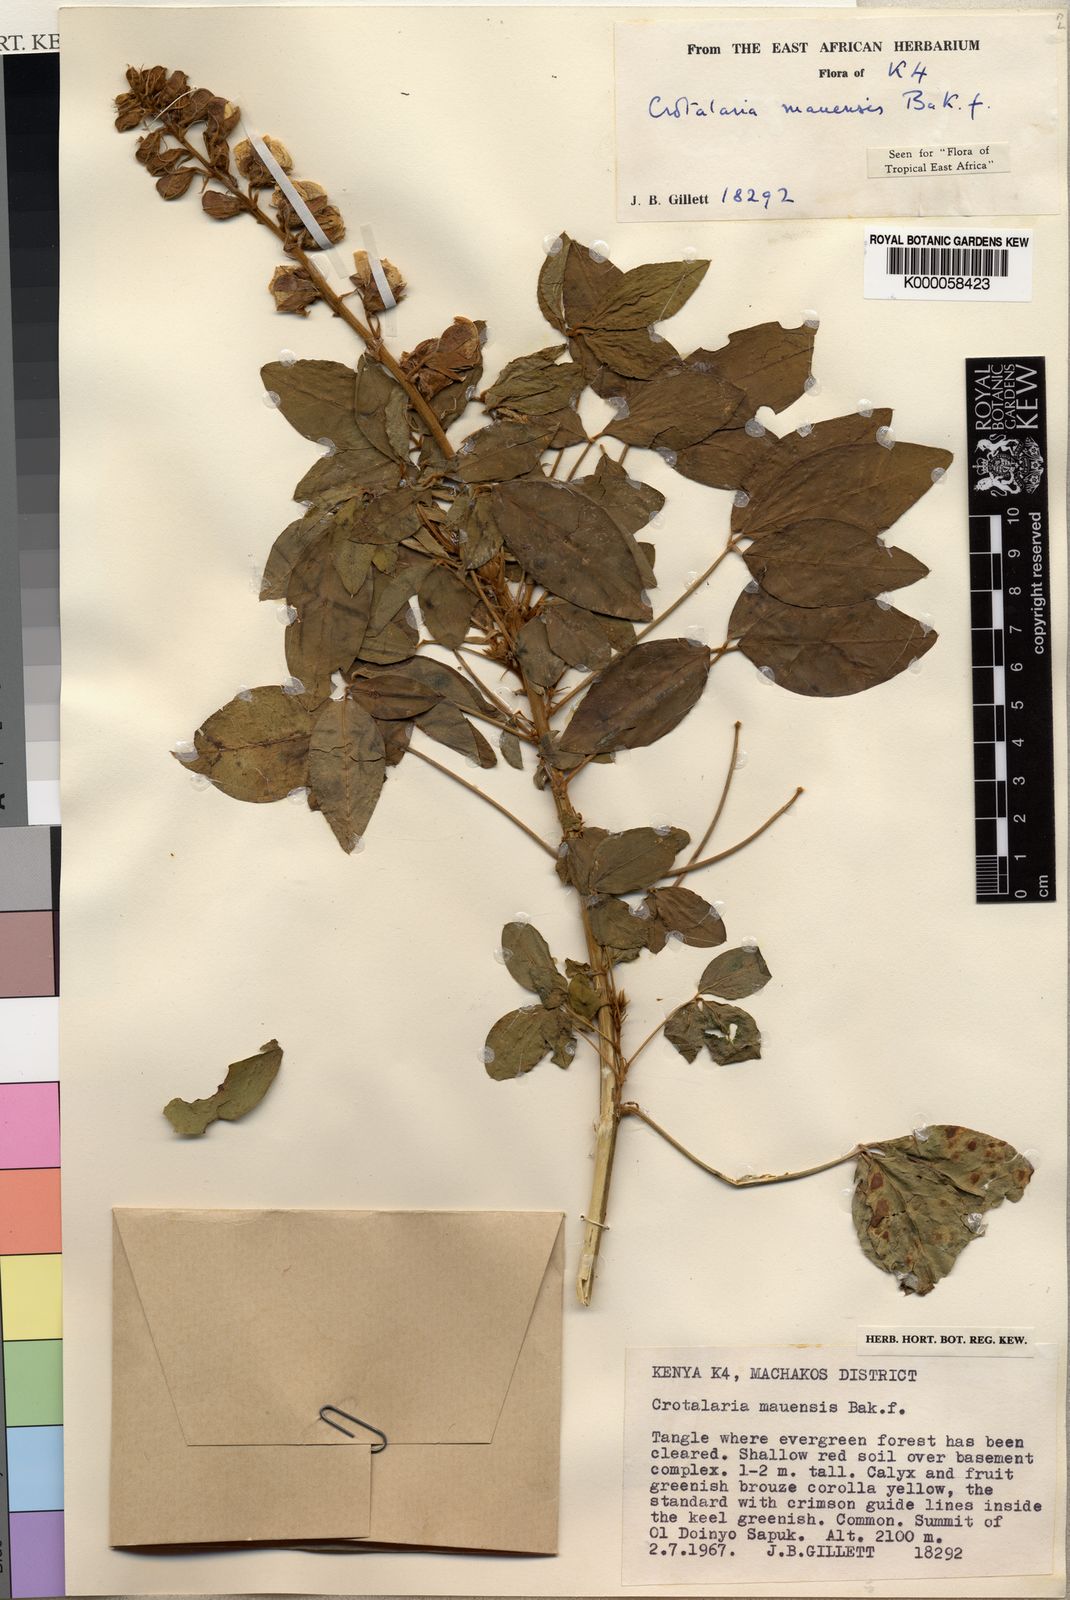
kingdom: Plantae
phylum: Tracheophyta
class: Magnoliopsida
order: Fabales
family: Fabaceae
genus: Crotalaria
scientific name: Crotalaria mauensis
